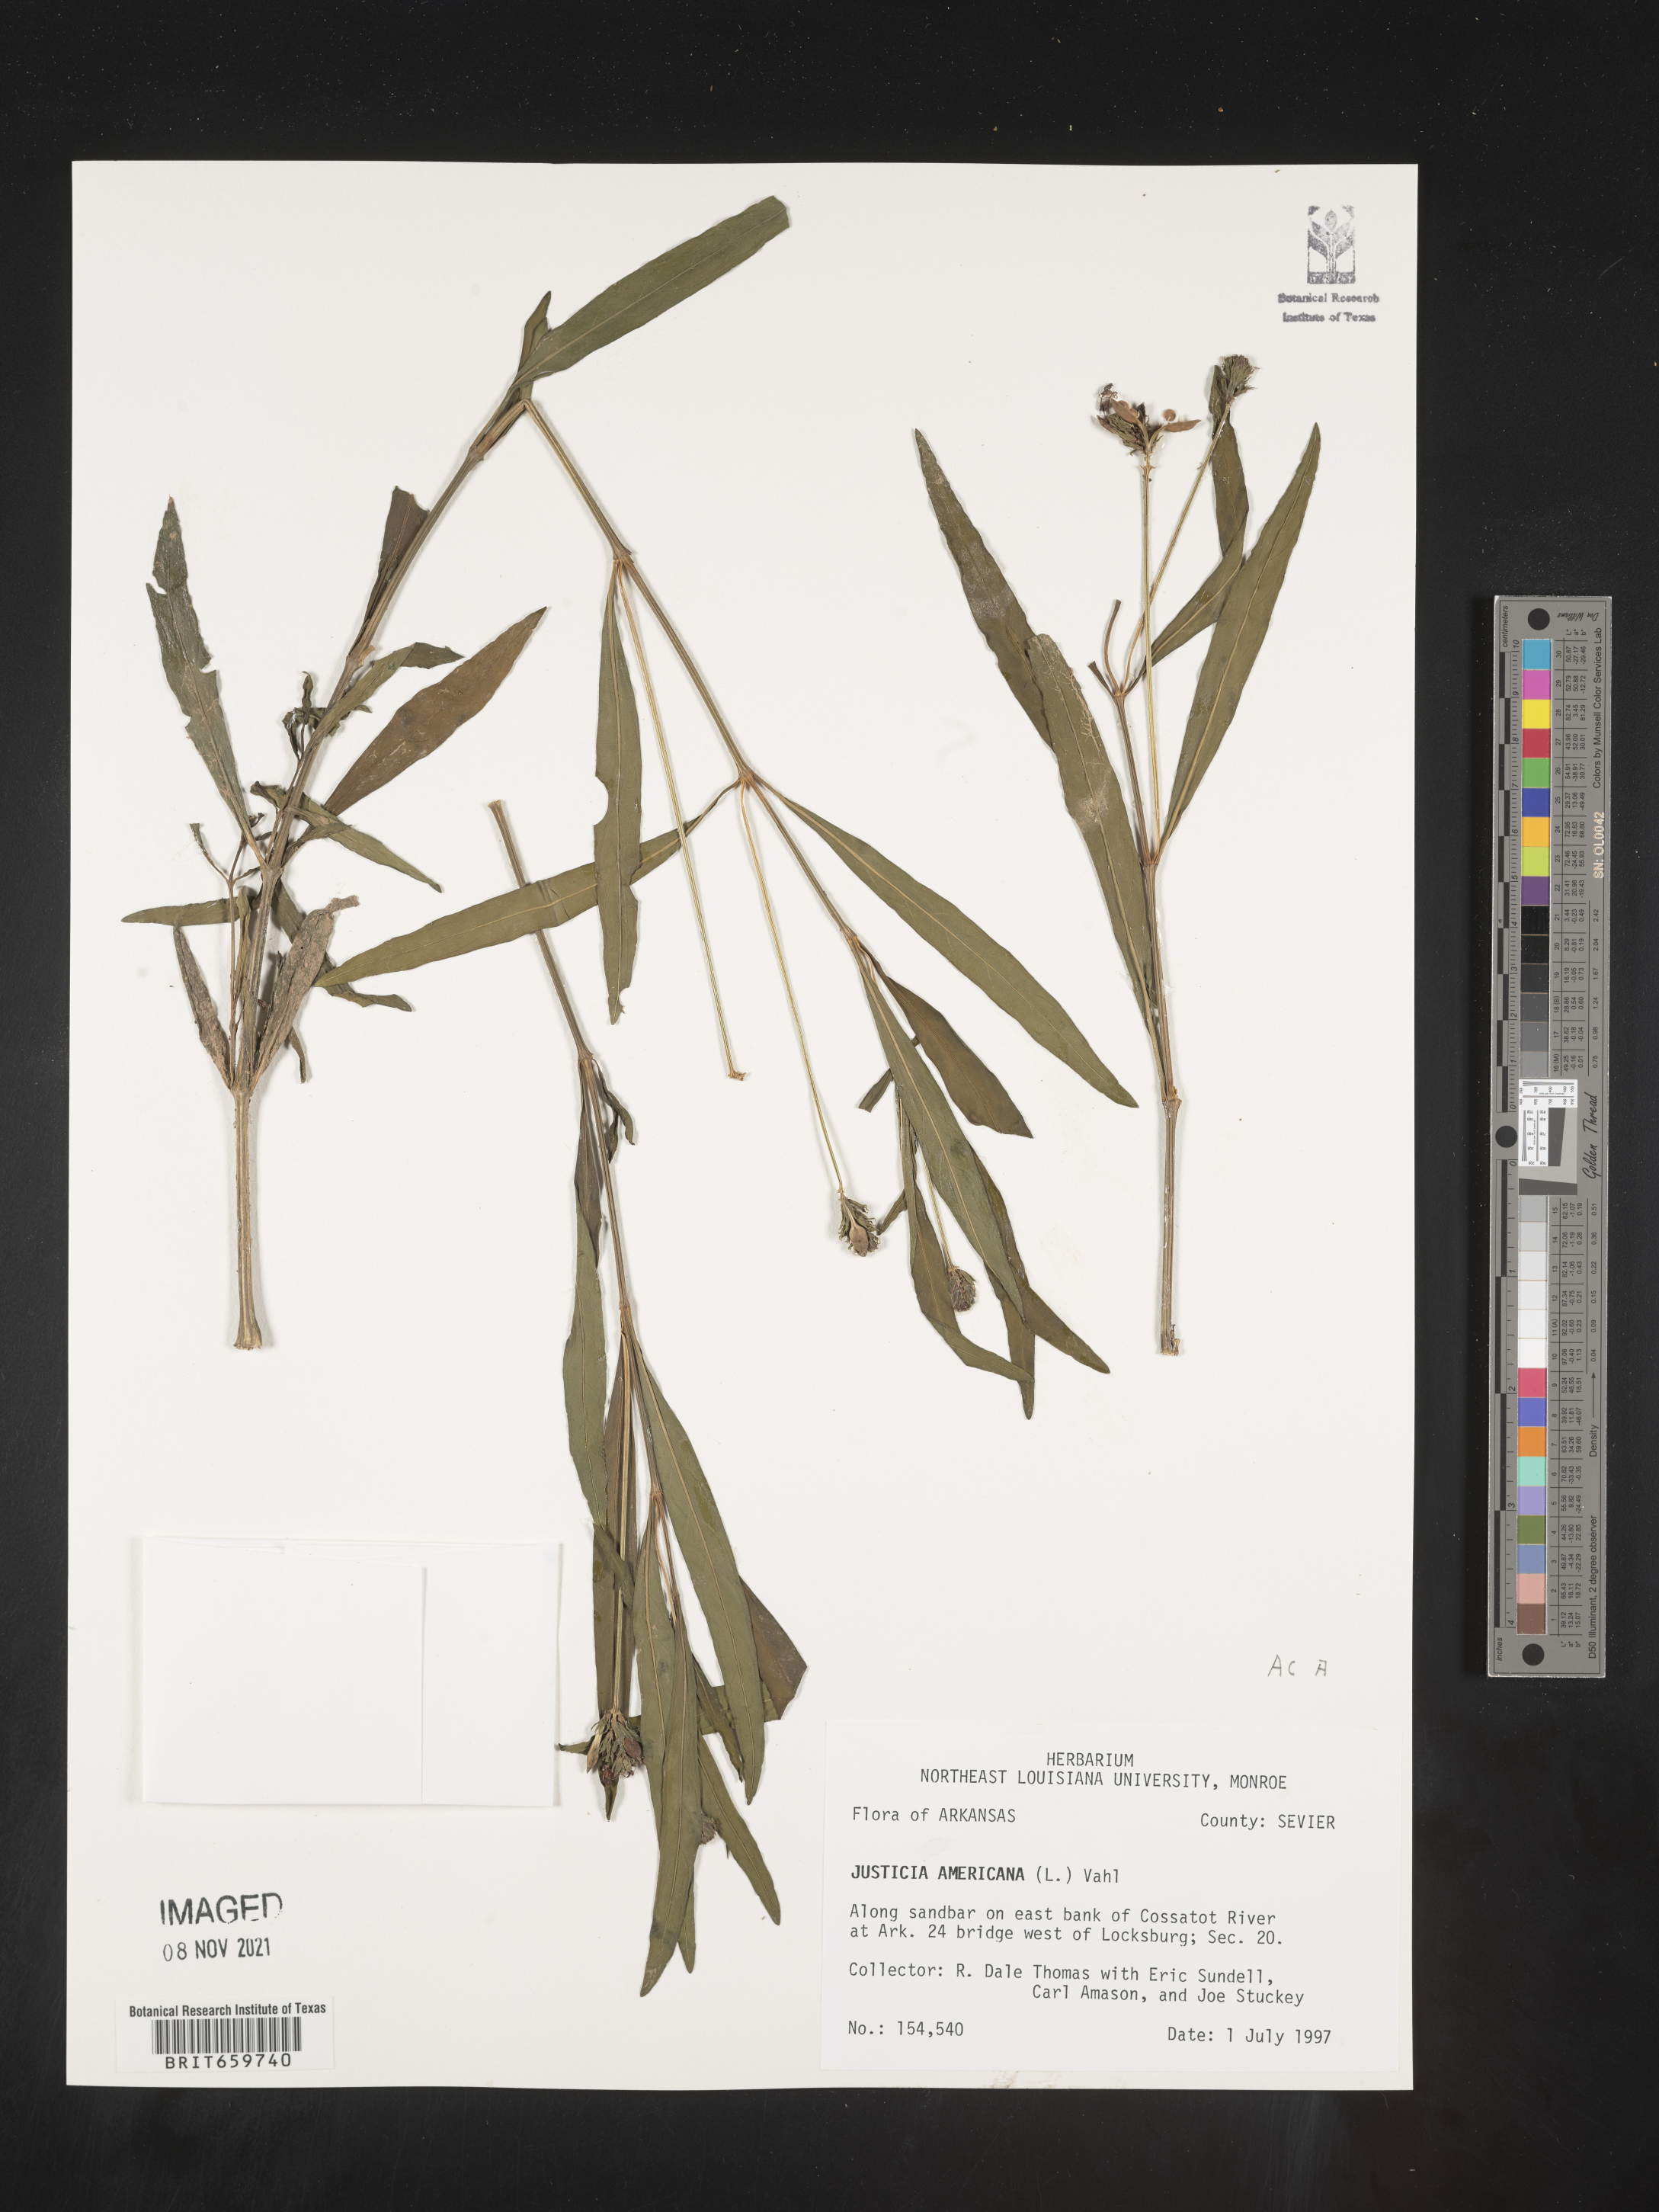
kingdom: Plantae
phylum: Tracheophyta
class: Magnoliopsida
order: Lamiales
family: Acanthaceae
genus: Dianthera
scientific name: Dianthera americana
